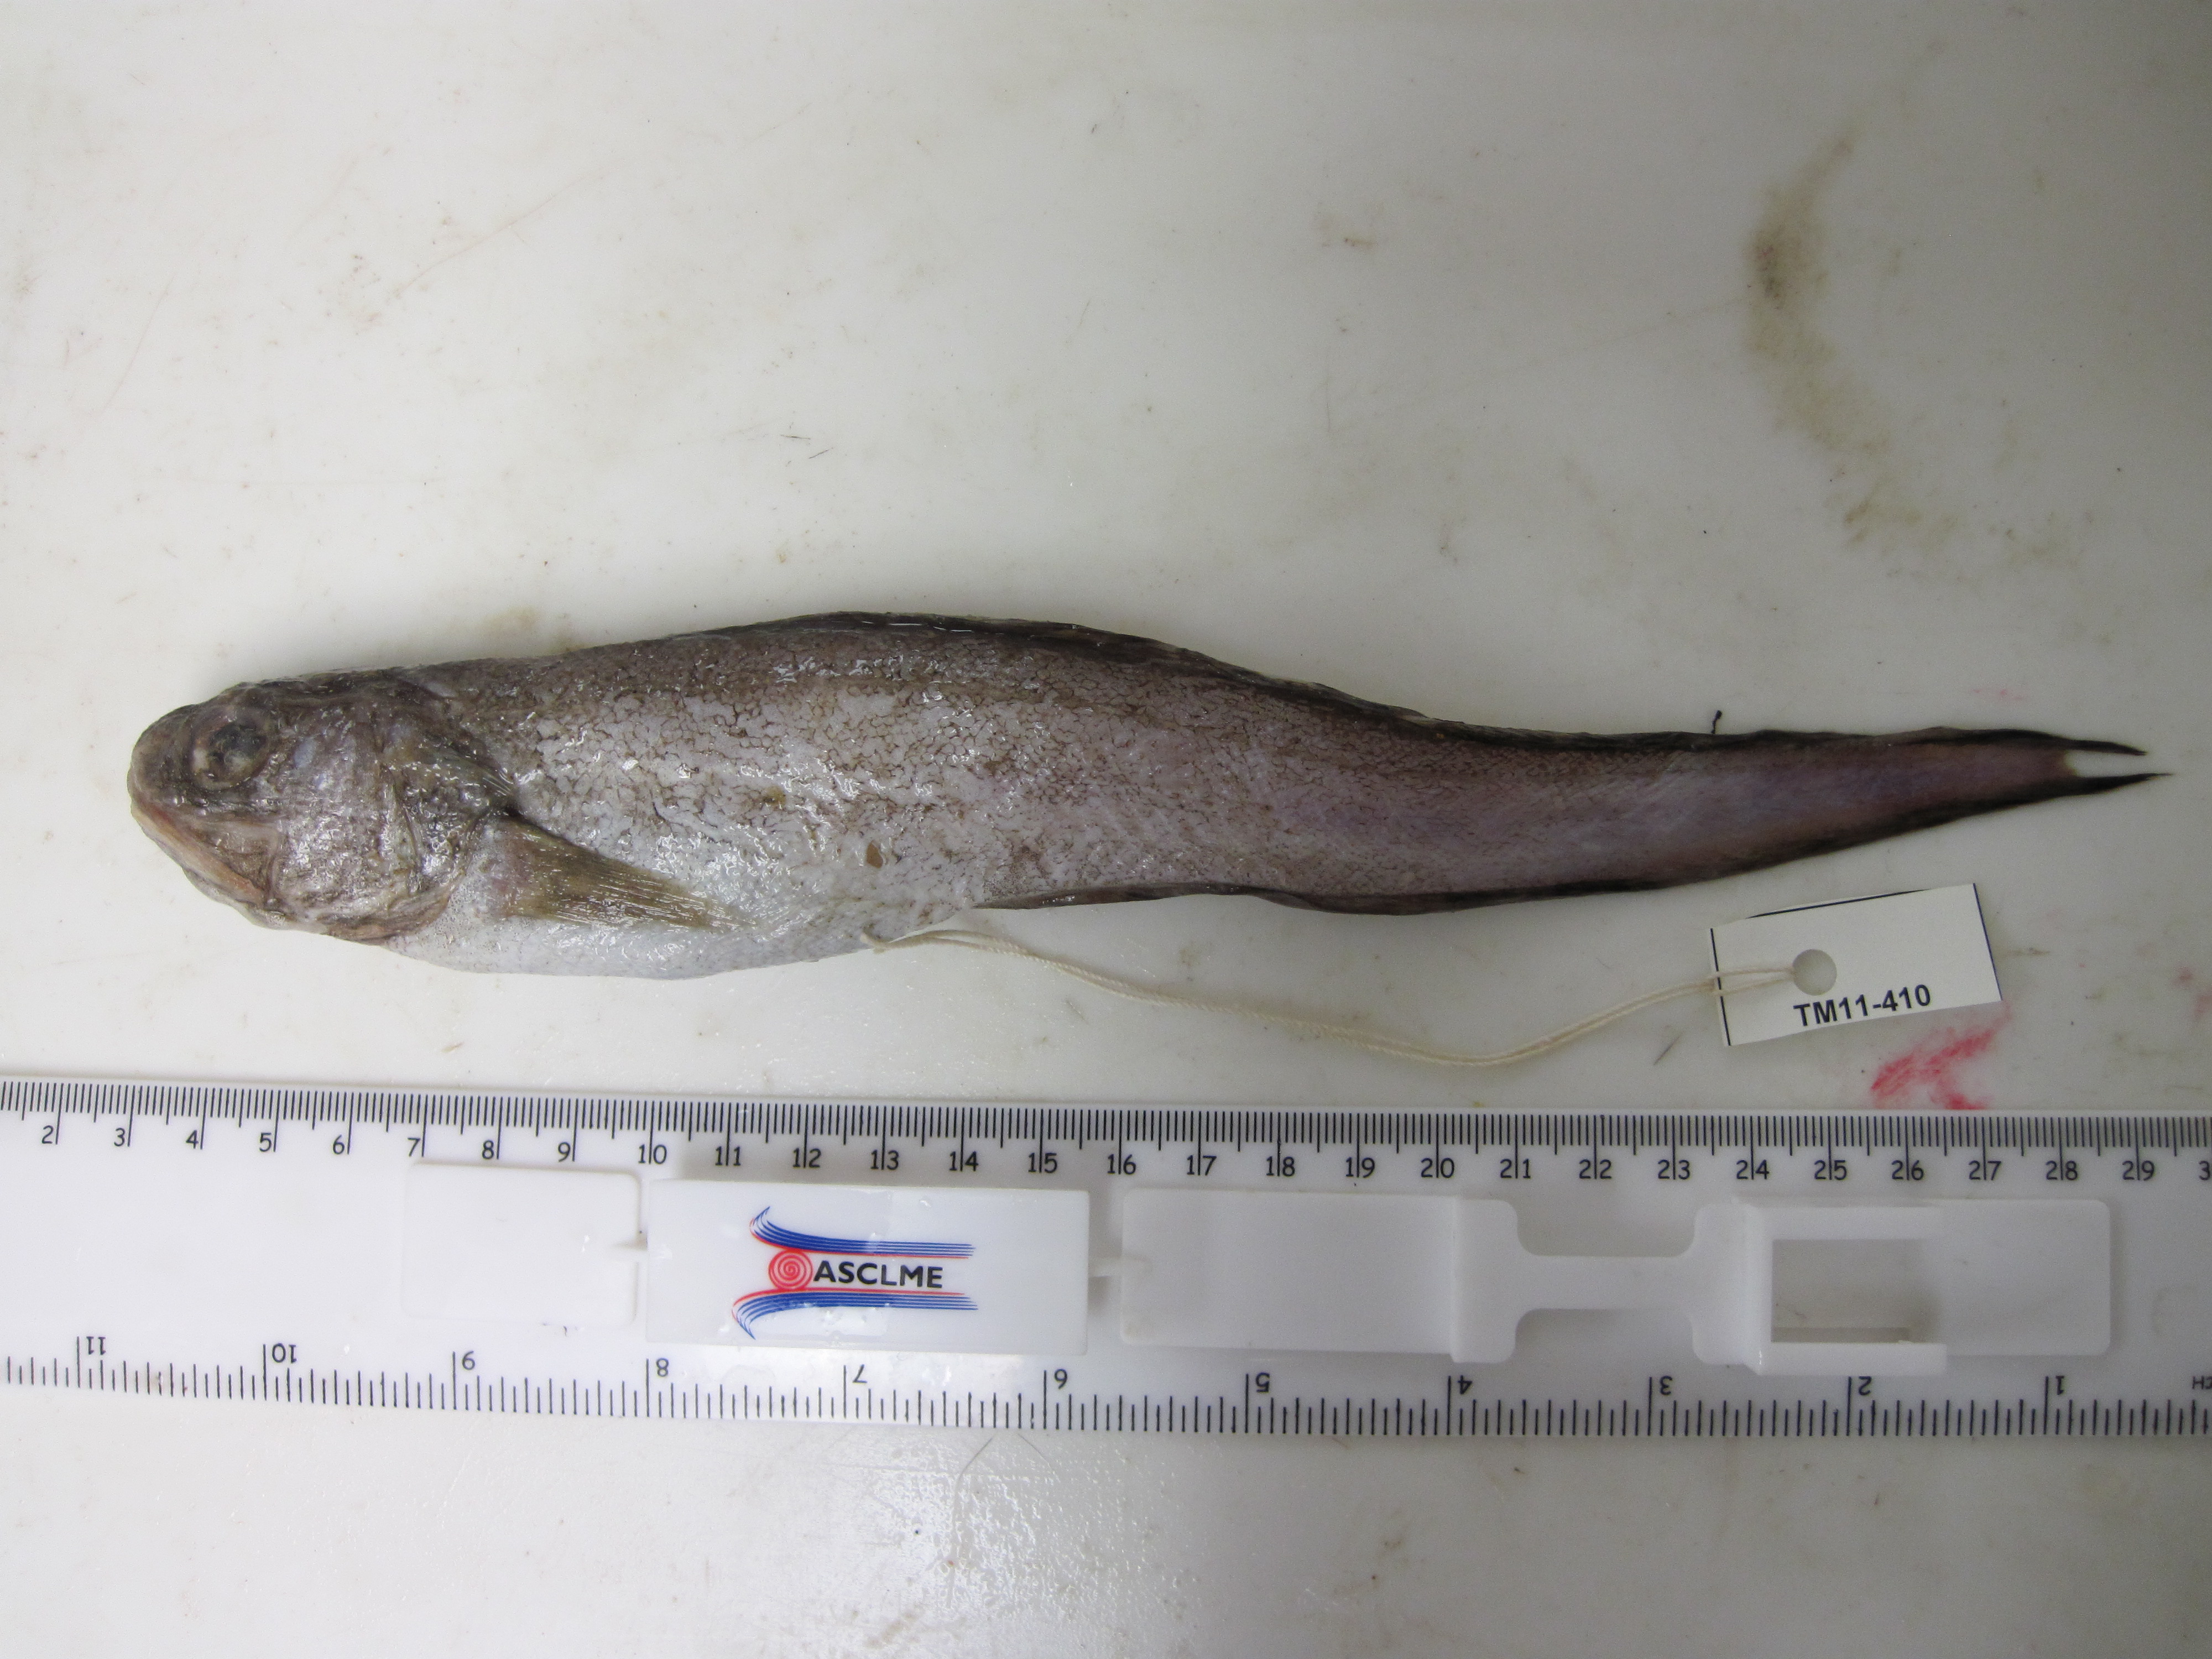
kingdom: Animalia
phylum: Chordata
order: Ophidiiformes
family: Ophidiidae
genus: Hoplobrotula
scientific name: Hoplobrotula gnathopus
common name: False kingklip
